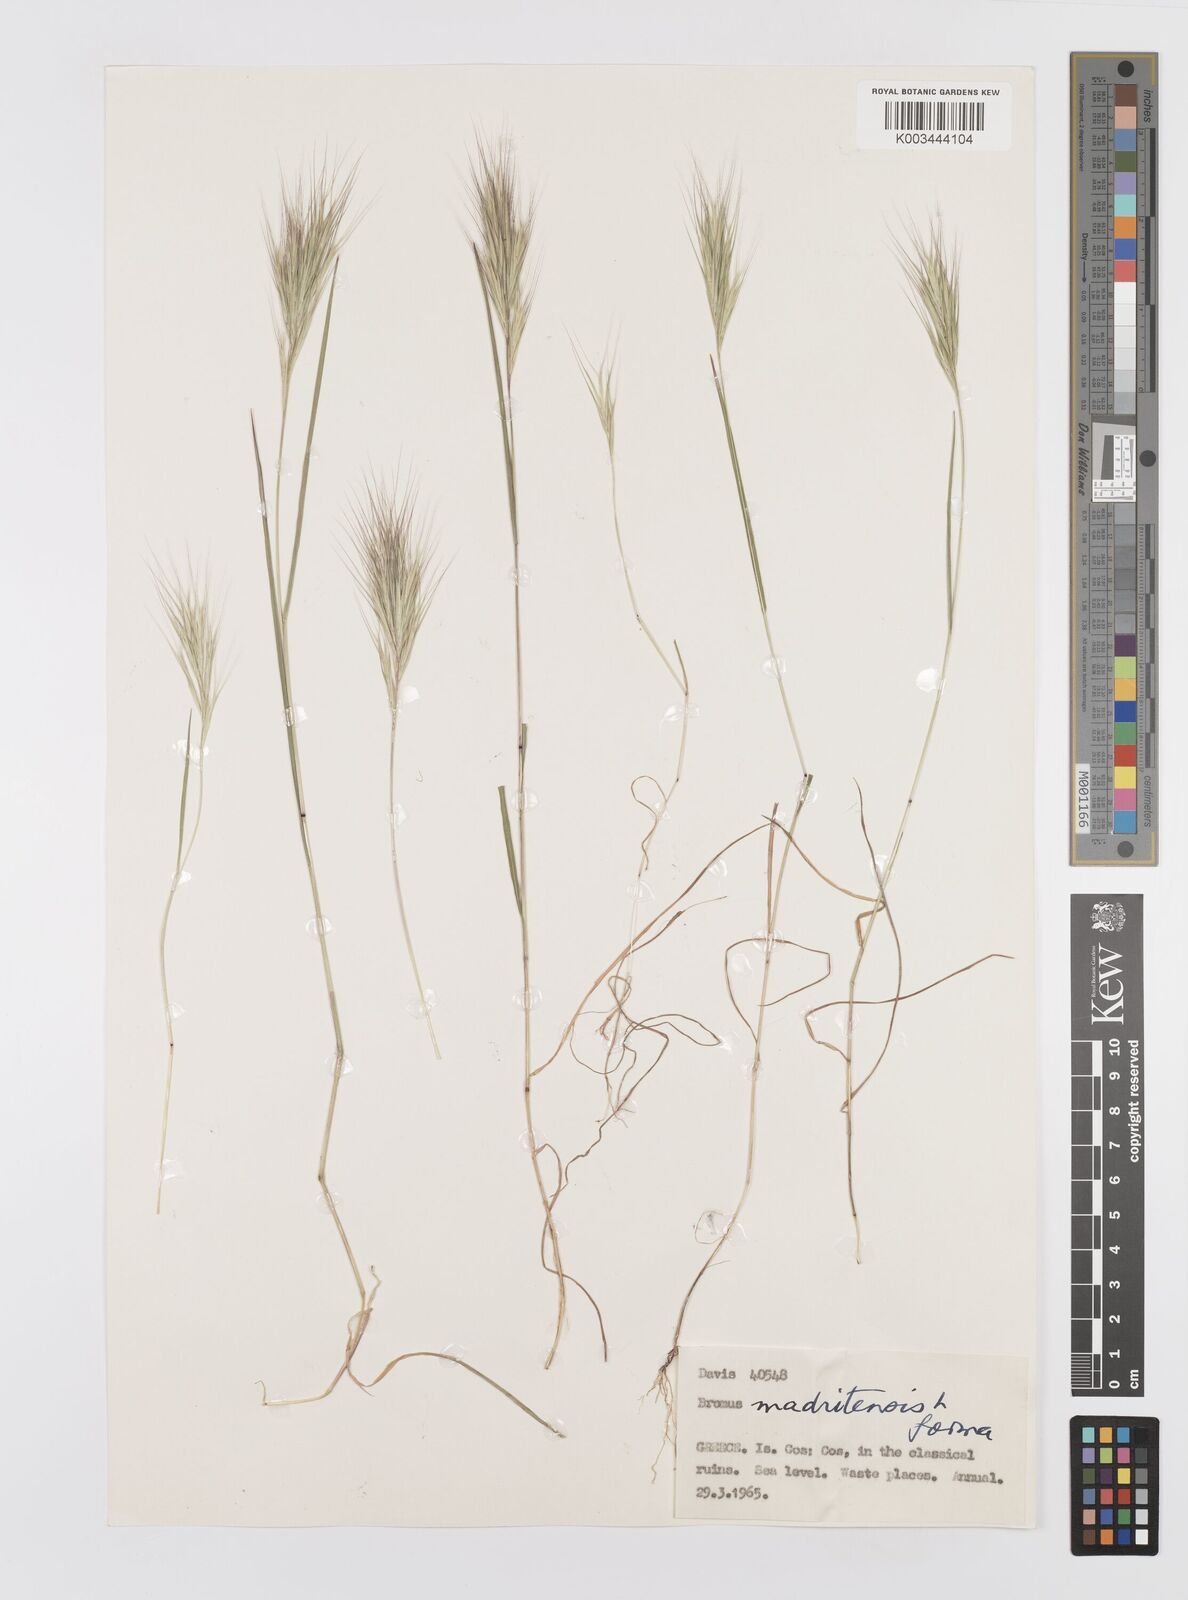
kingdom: Plantae
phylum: Tracheophyta
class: Liliopsida
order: Poales
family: Poaceae
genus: Bromus
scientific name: Bromus madritensis
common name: Compact brome
